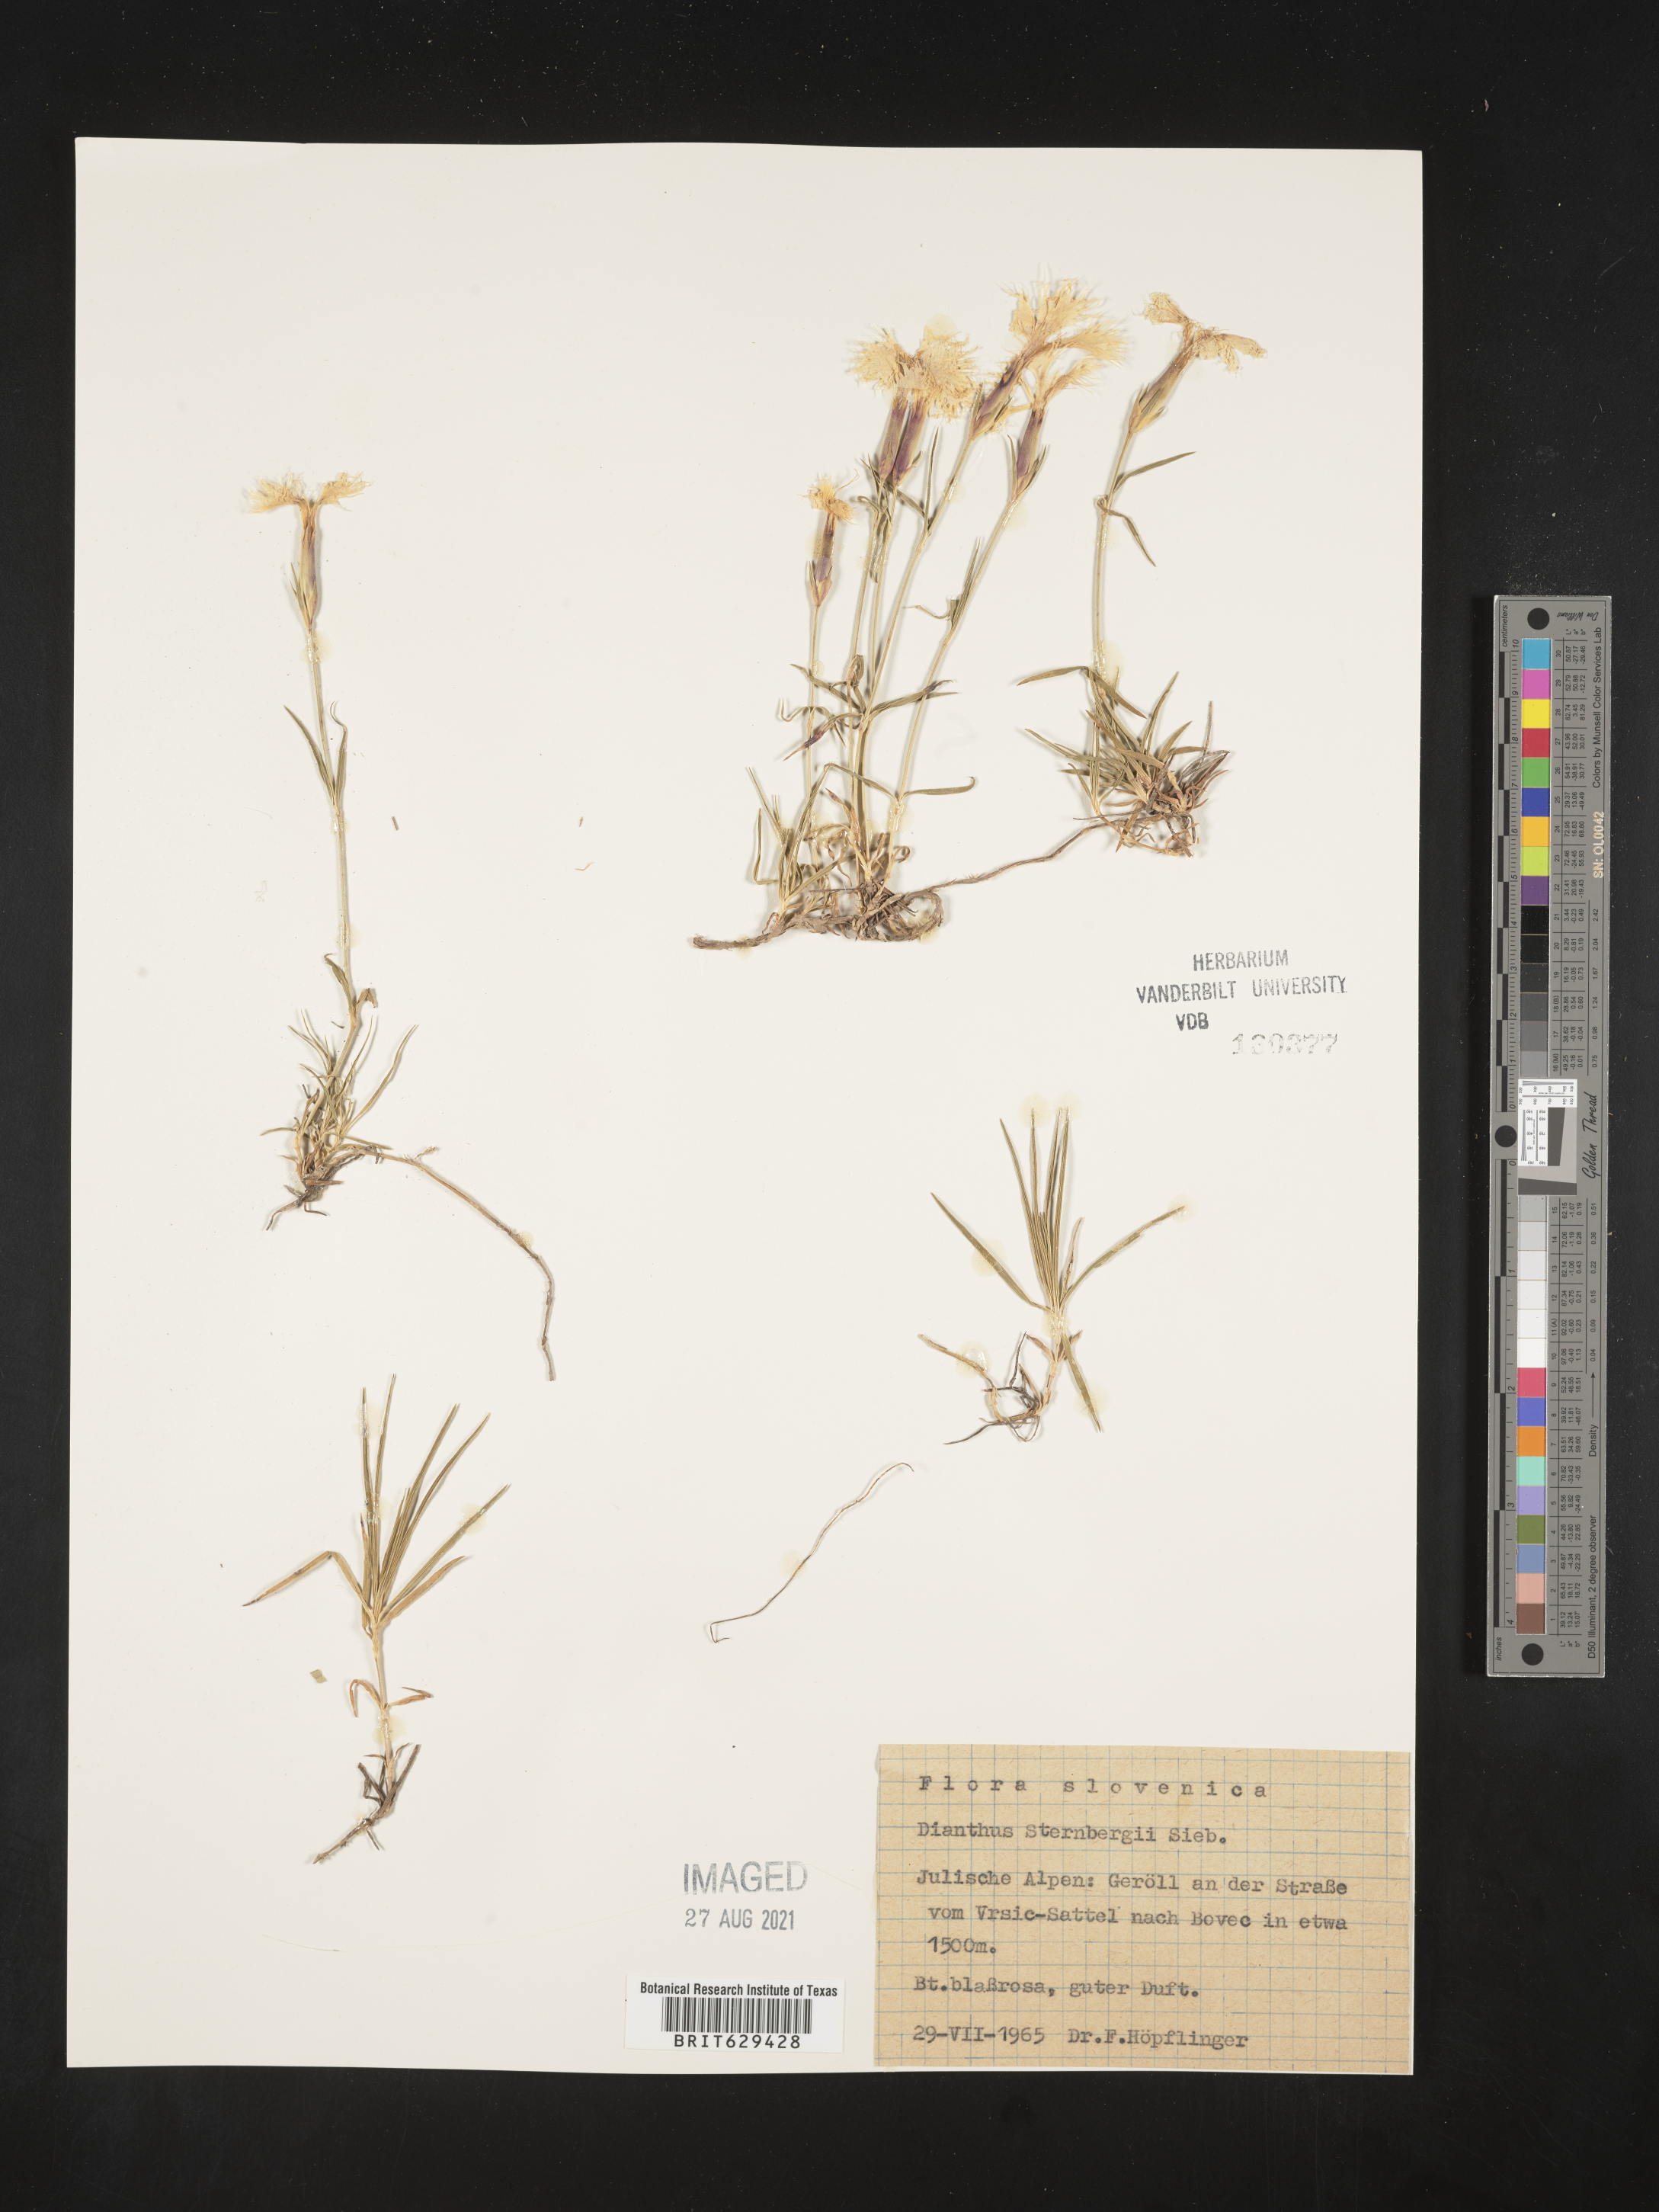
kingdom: Plantae
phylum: Tracheophyta
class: Magnoliopsida
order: Caryophyllales
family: Caryophyllaceae
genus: Dianthus
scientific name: Dianthus sternbergii
